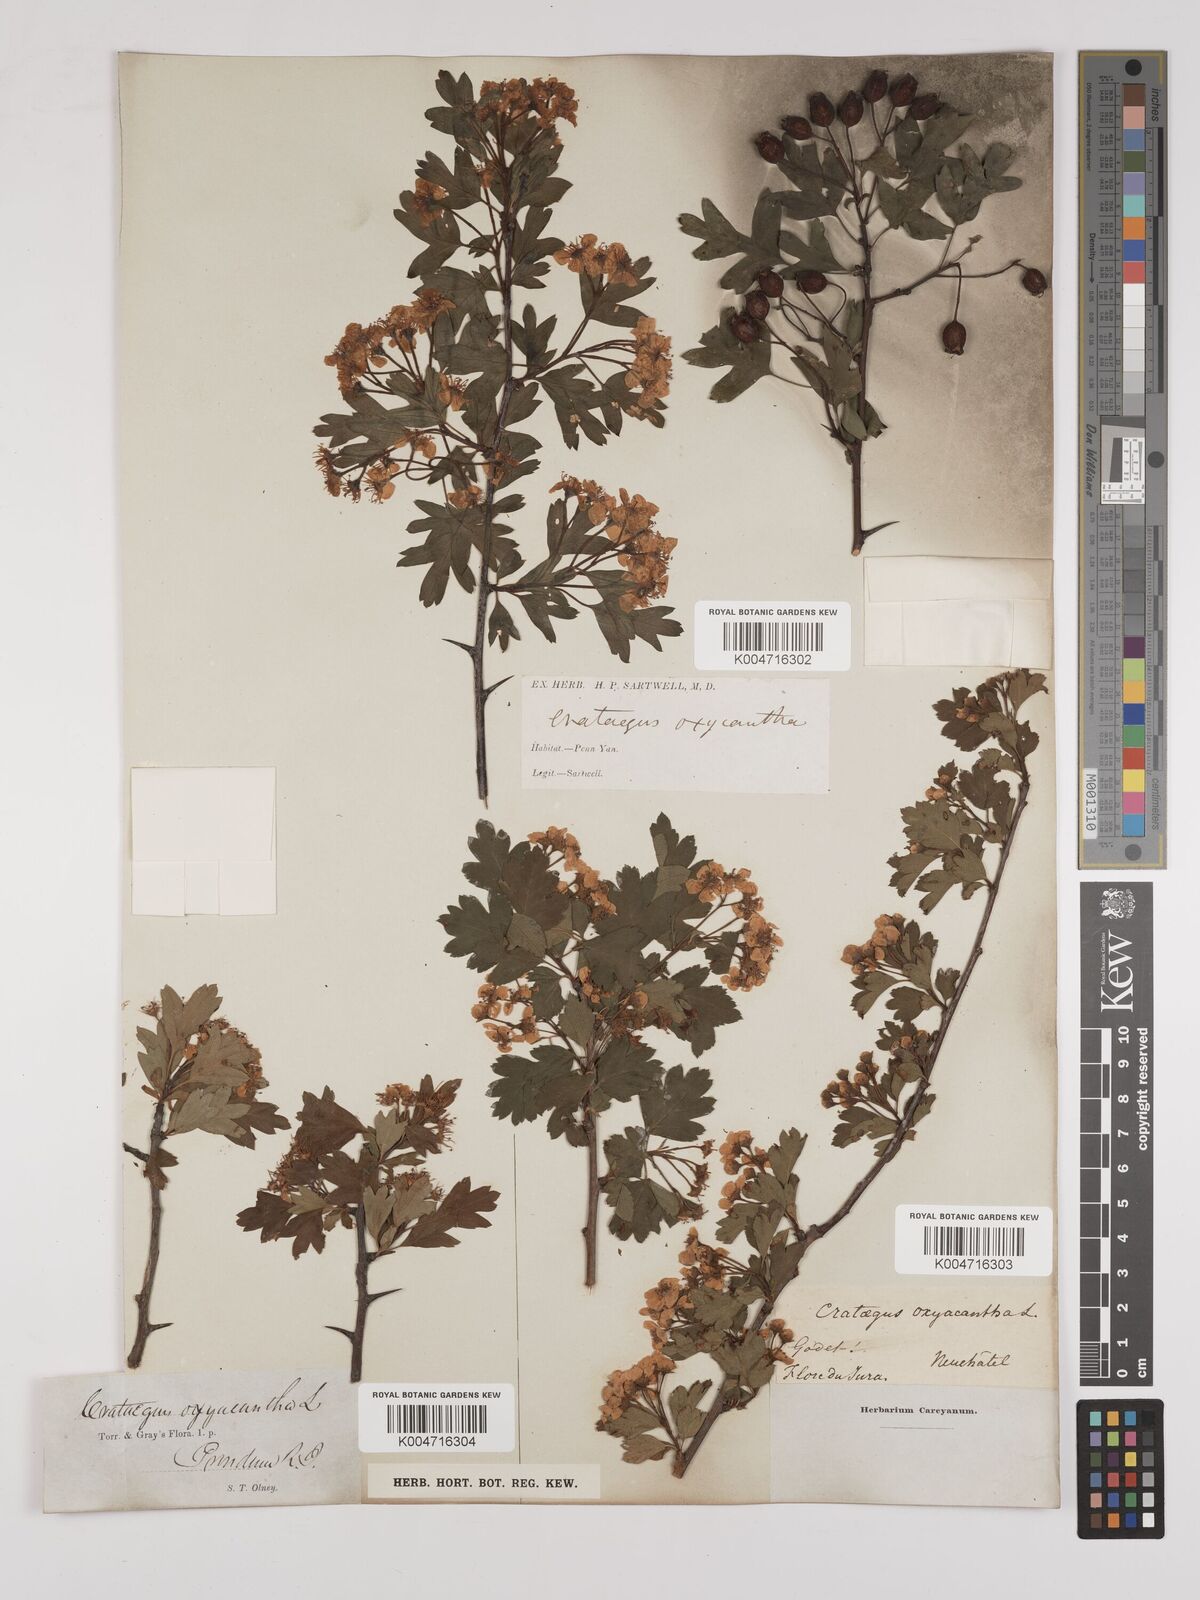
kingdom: Plantae
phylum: Tracheophyta
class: Magnoliopsida
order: Rosales
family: Rosaceae
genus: Crataegus
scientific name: Crataegus monogyna
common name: Hawthorn
